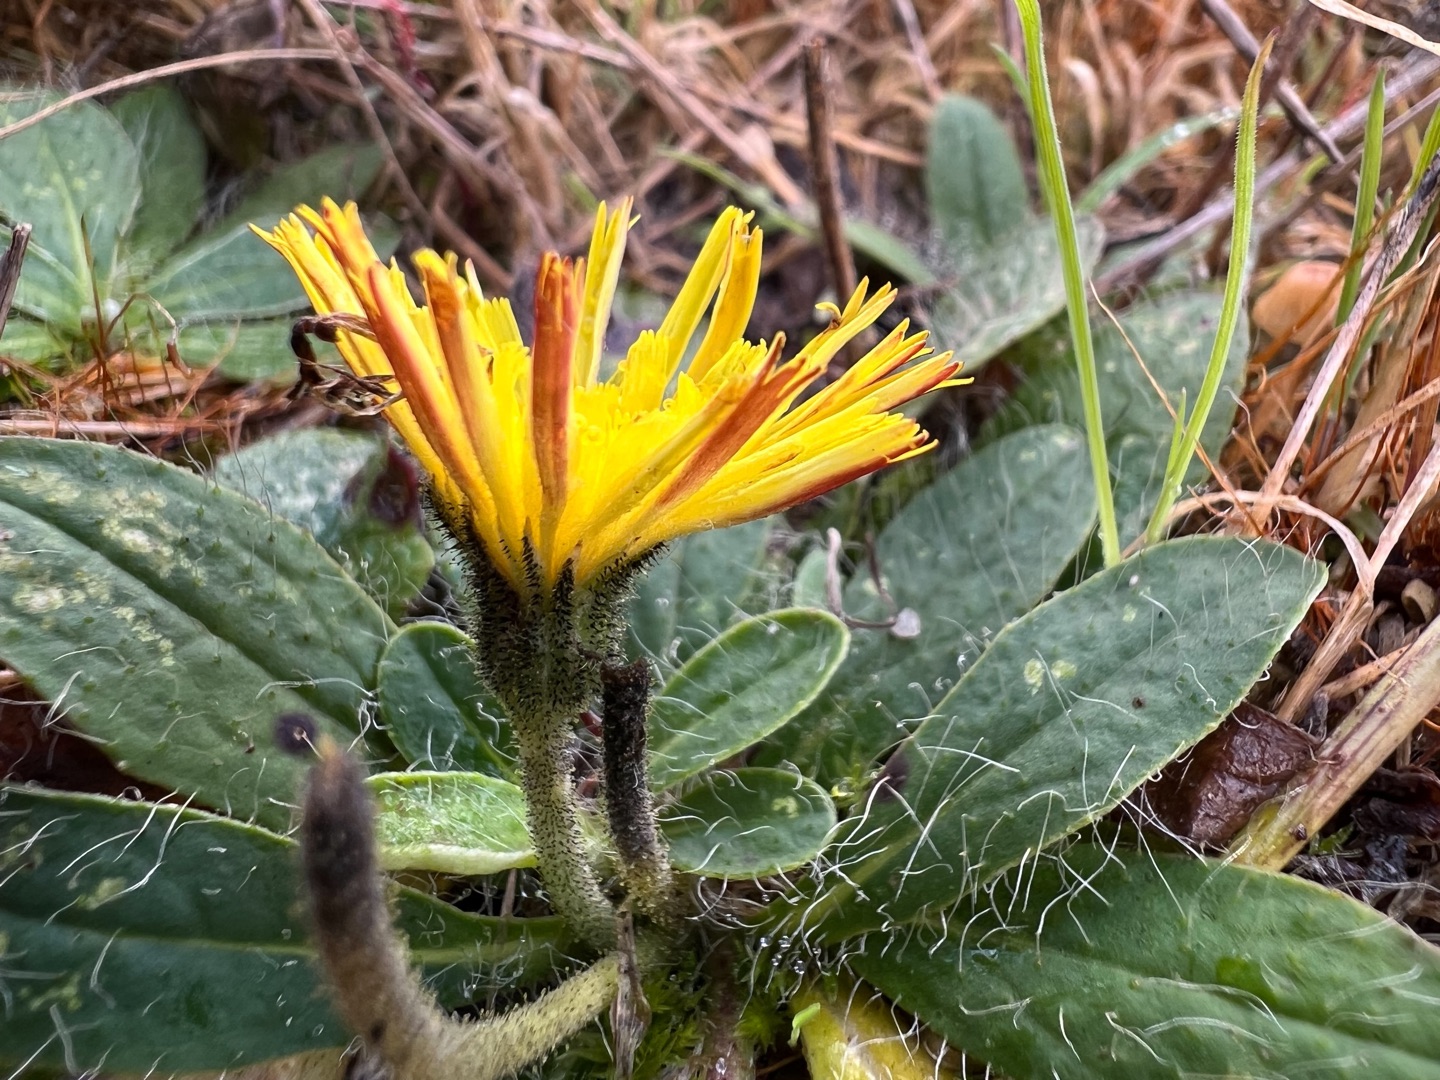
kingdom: Plantae
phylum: Tracheophyta
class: Magnoliopsida
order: Asterales
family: Asteraceae
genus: Pilosella
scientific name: Pilosella officinarum
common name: Håret høgeurt
